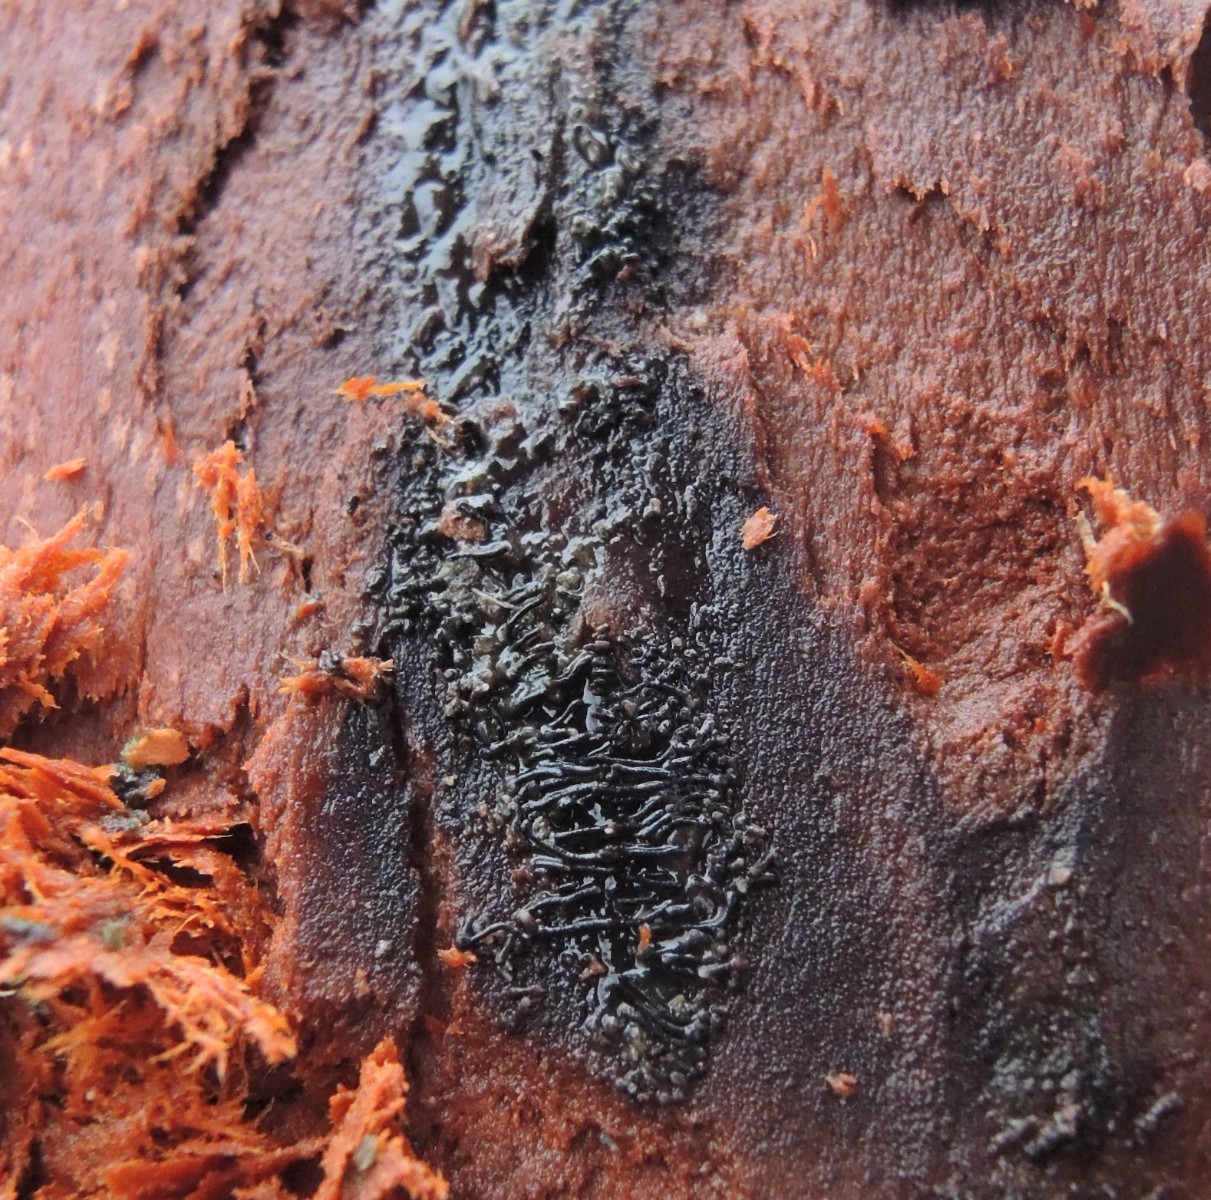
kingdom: Fungi
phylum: Ascomycota
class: Sordariomycetes
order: Calosphaeriales
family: Calosphaeriaceae
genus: Calosphaeria
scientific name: Calosphaeria pulchella
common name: smuk slyngkerne
